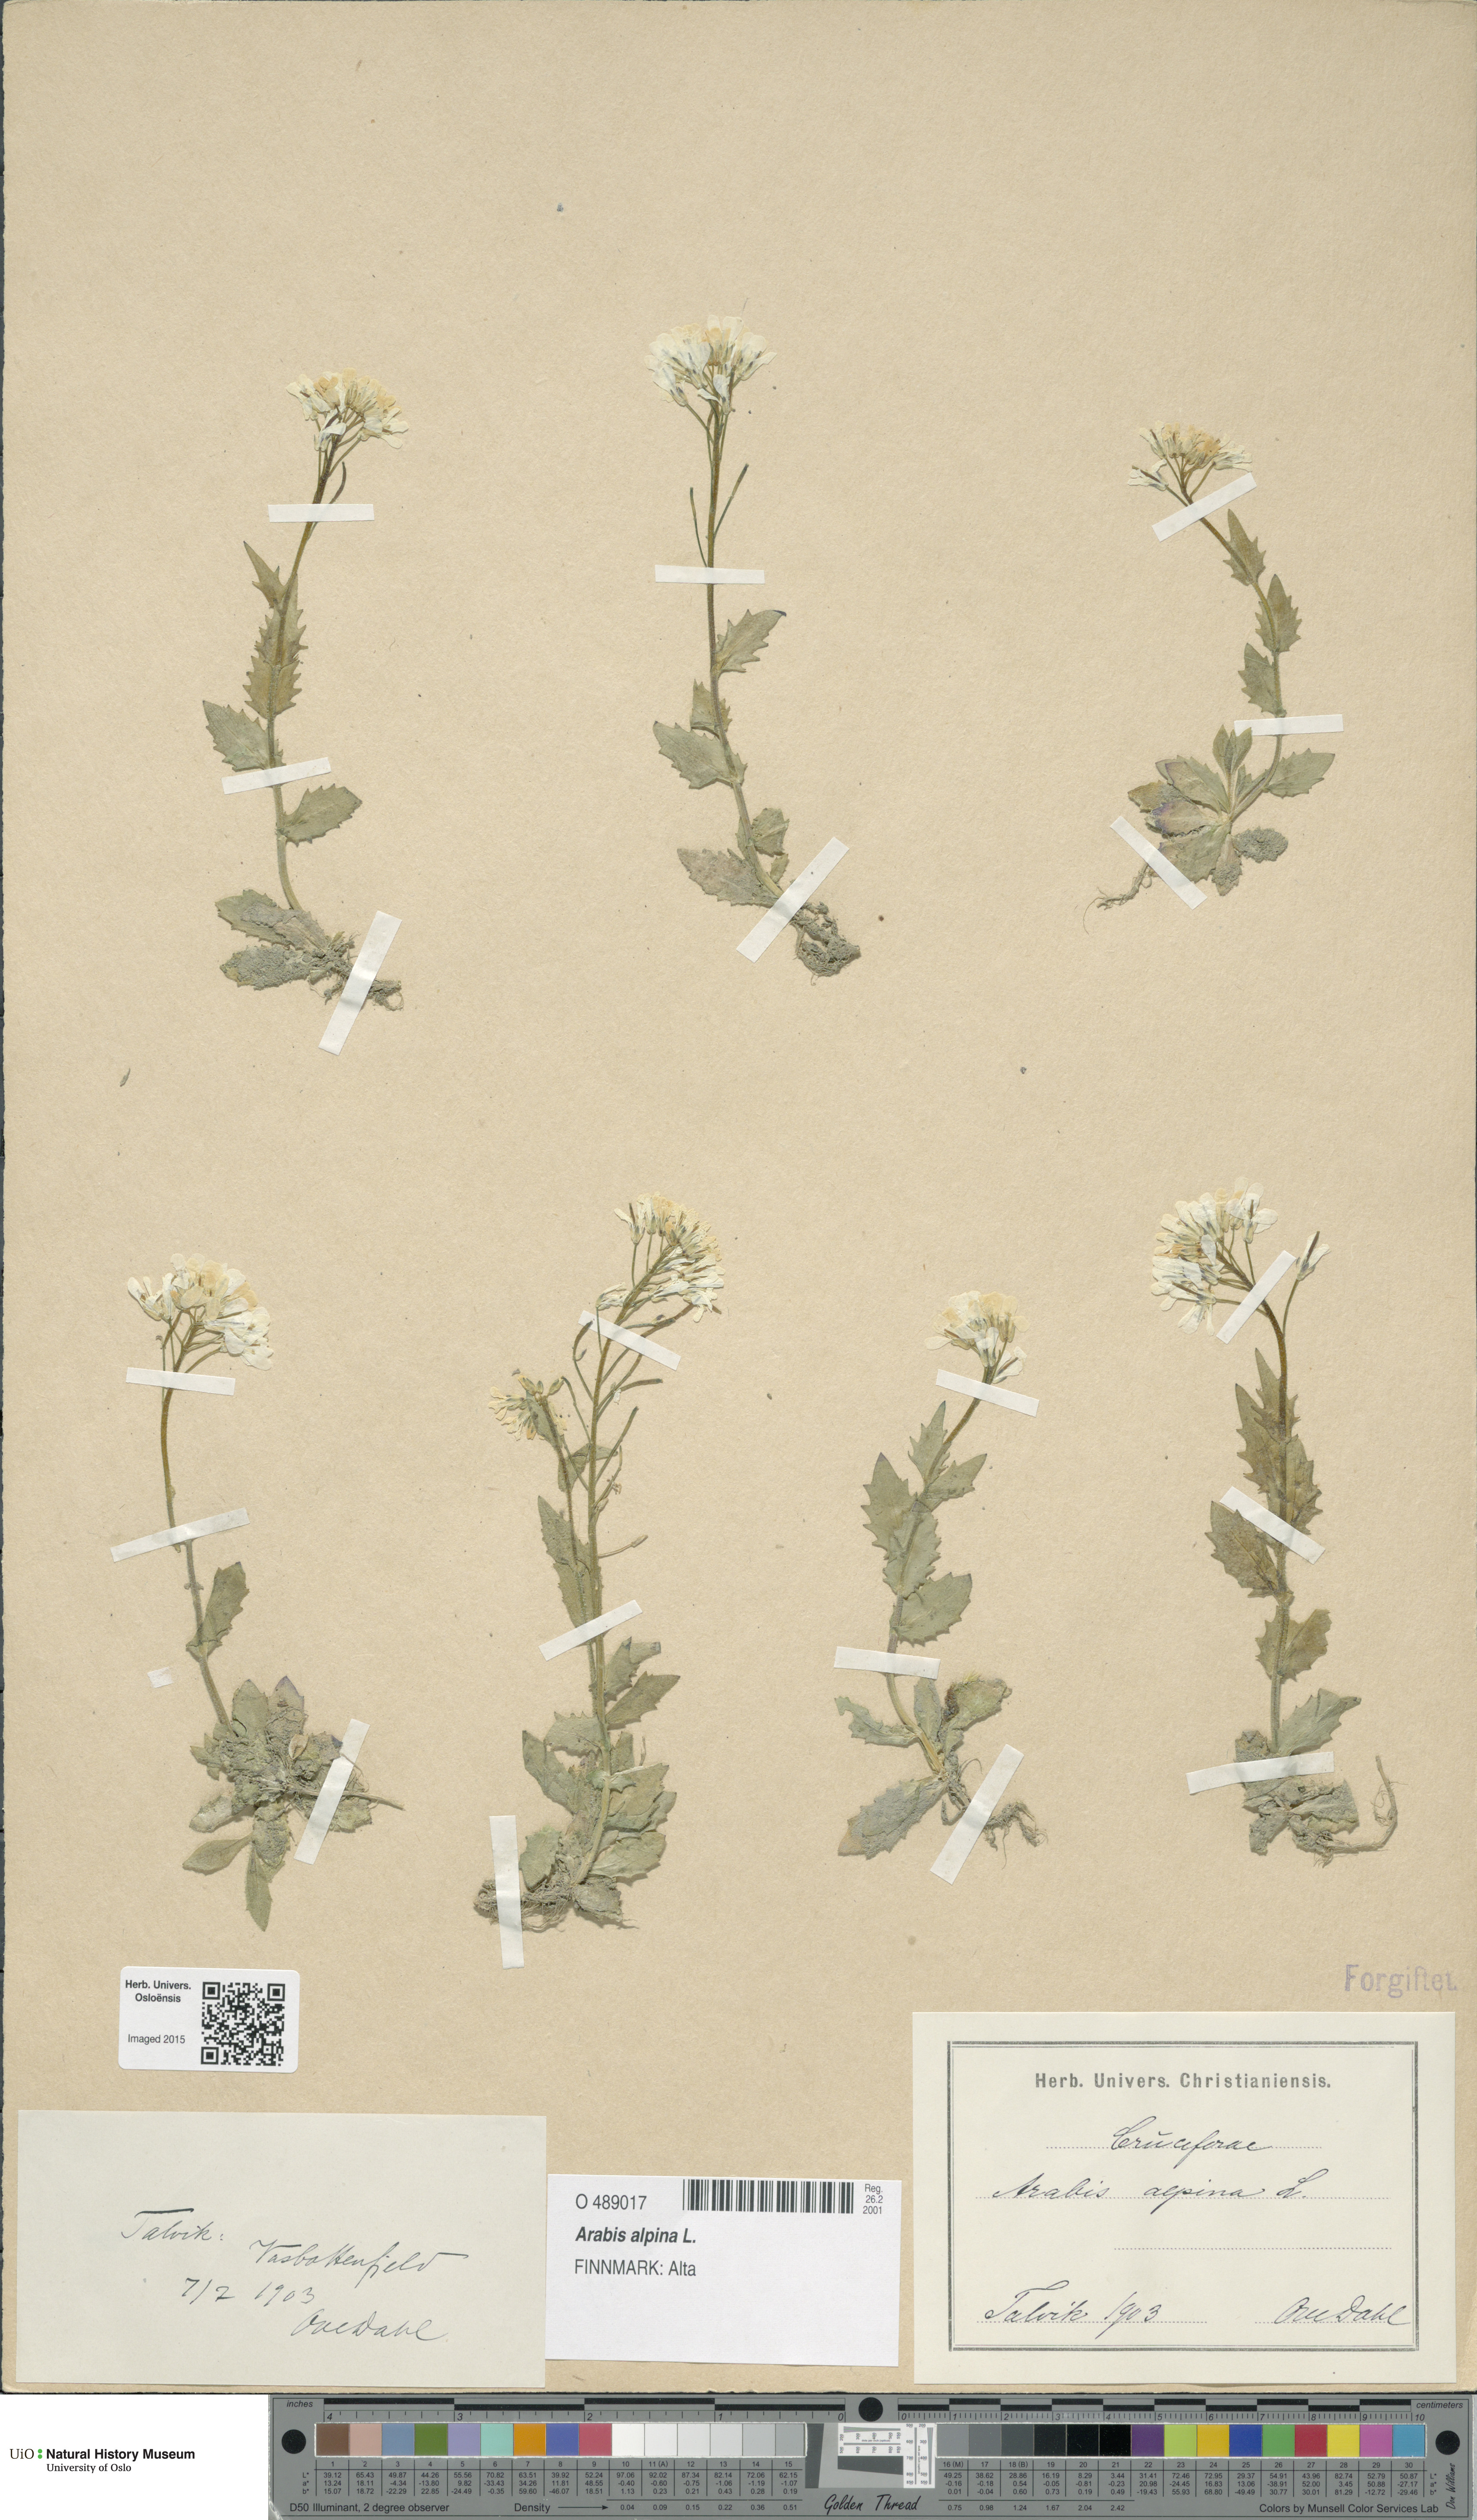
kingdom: Plantae
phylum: Tracheophyta
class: Magnoliopsida
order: Brassicales
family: Brassicaceae
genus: Arabis
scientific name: Arabis alpina
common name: Alpine rock-cress
